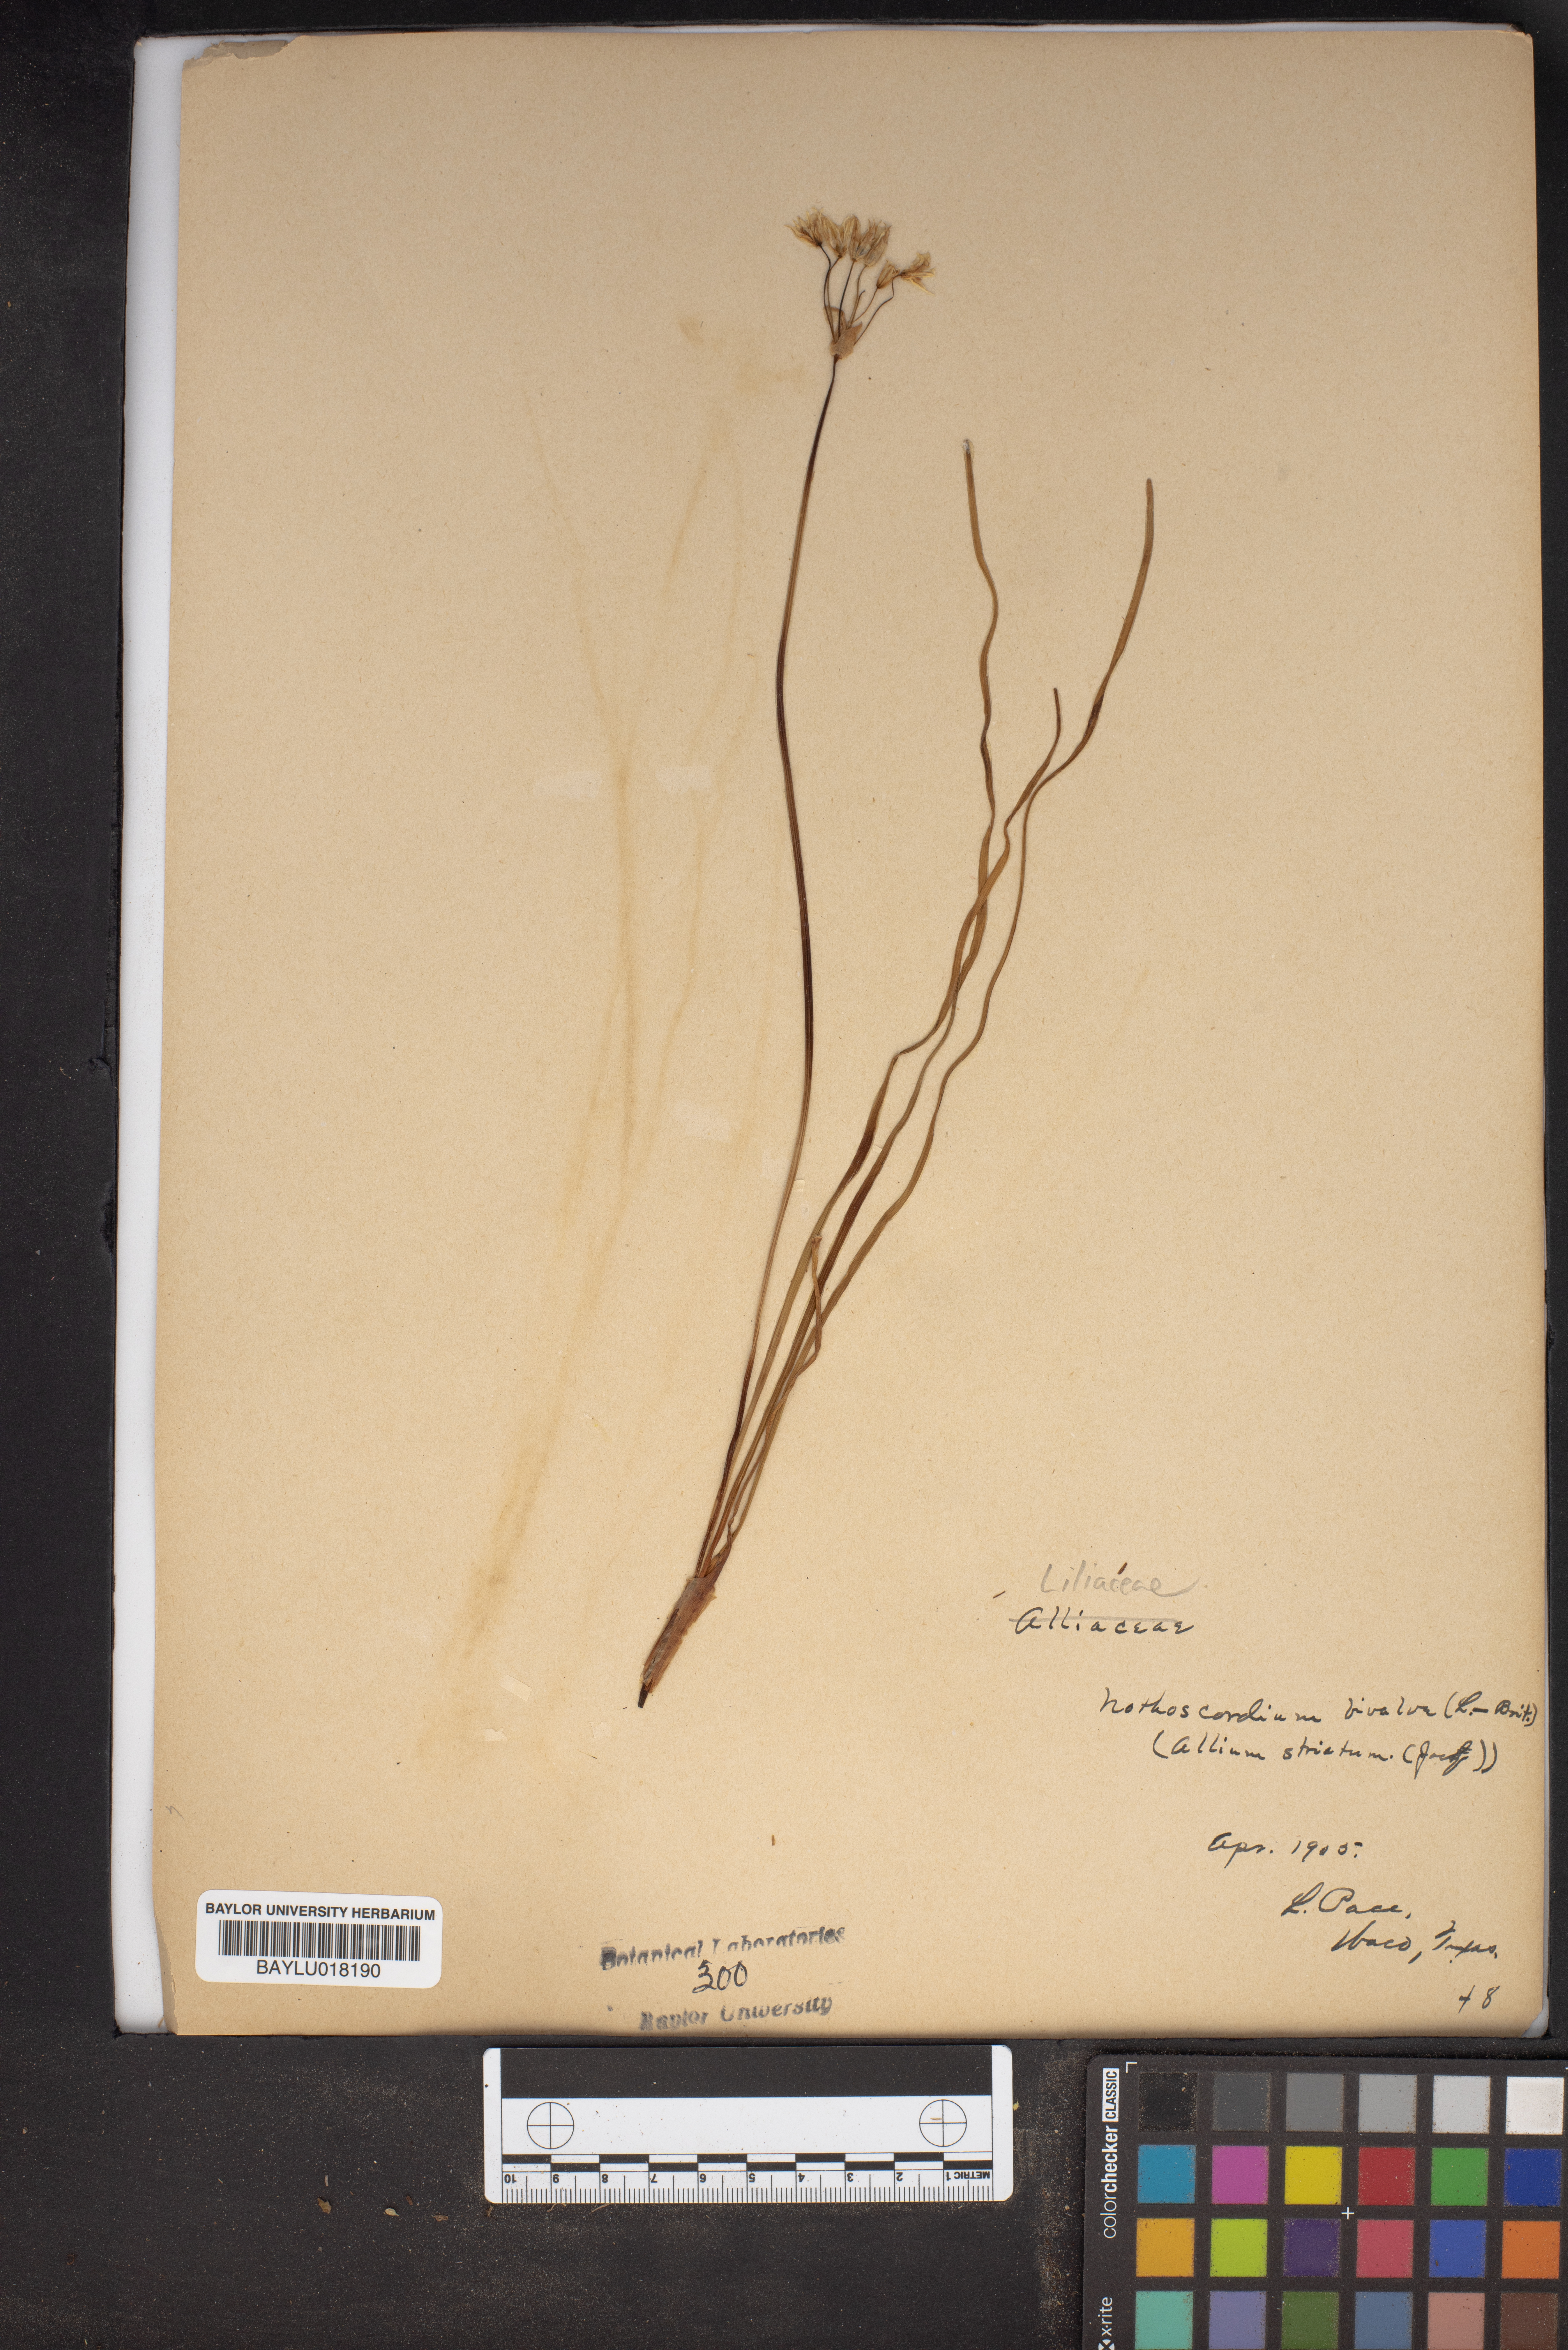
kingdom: Plantae
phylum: Tracheophyta
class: Liliopsida
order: Asparagales
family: Amaryllidaceae
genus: Nothoscordum
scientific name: Nothoscordum bivalve
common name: Crow-poison
